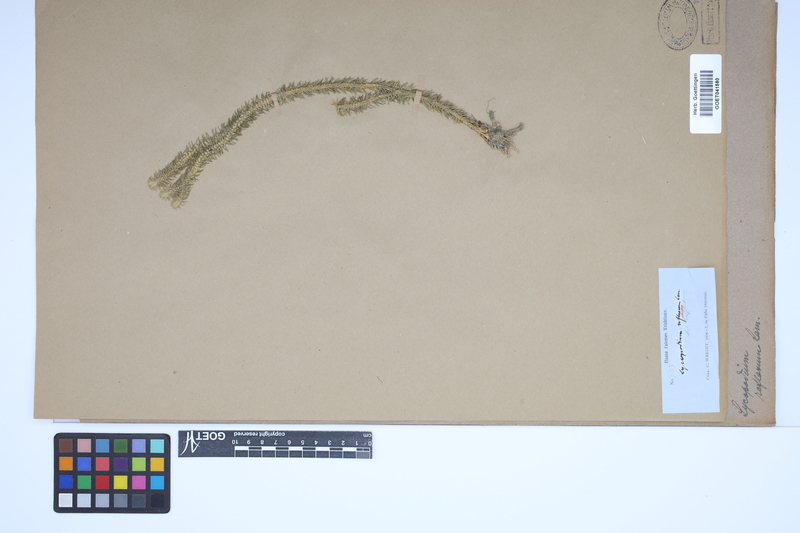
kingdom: Plantae
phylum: Tracheophyta
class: Lycopodiopsida
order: Lycopodiales
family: Lycopodiaceae
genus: Huperzia
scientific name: Huperzia lucidula
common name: Shining clubmoss
